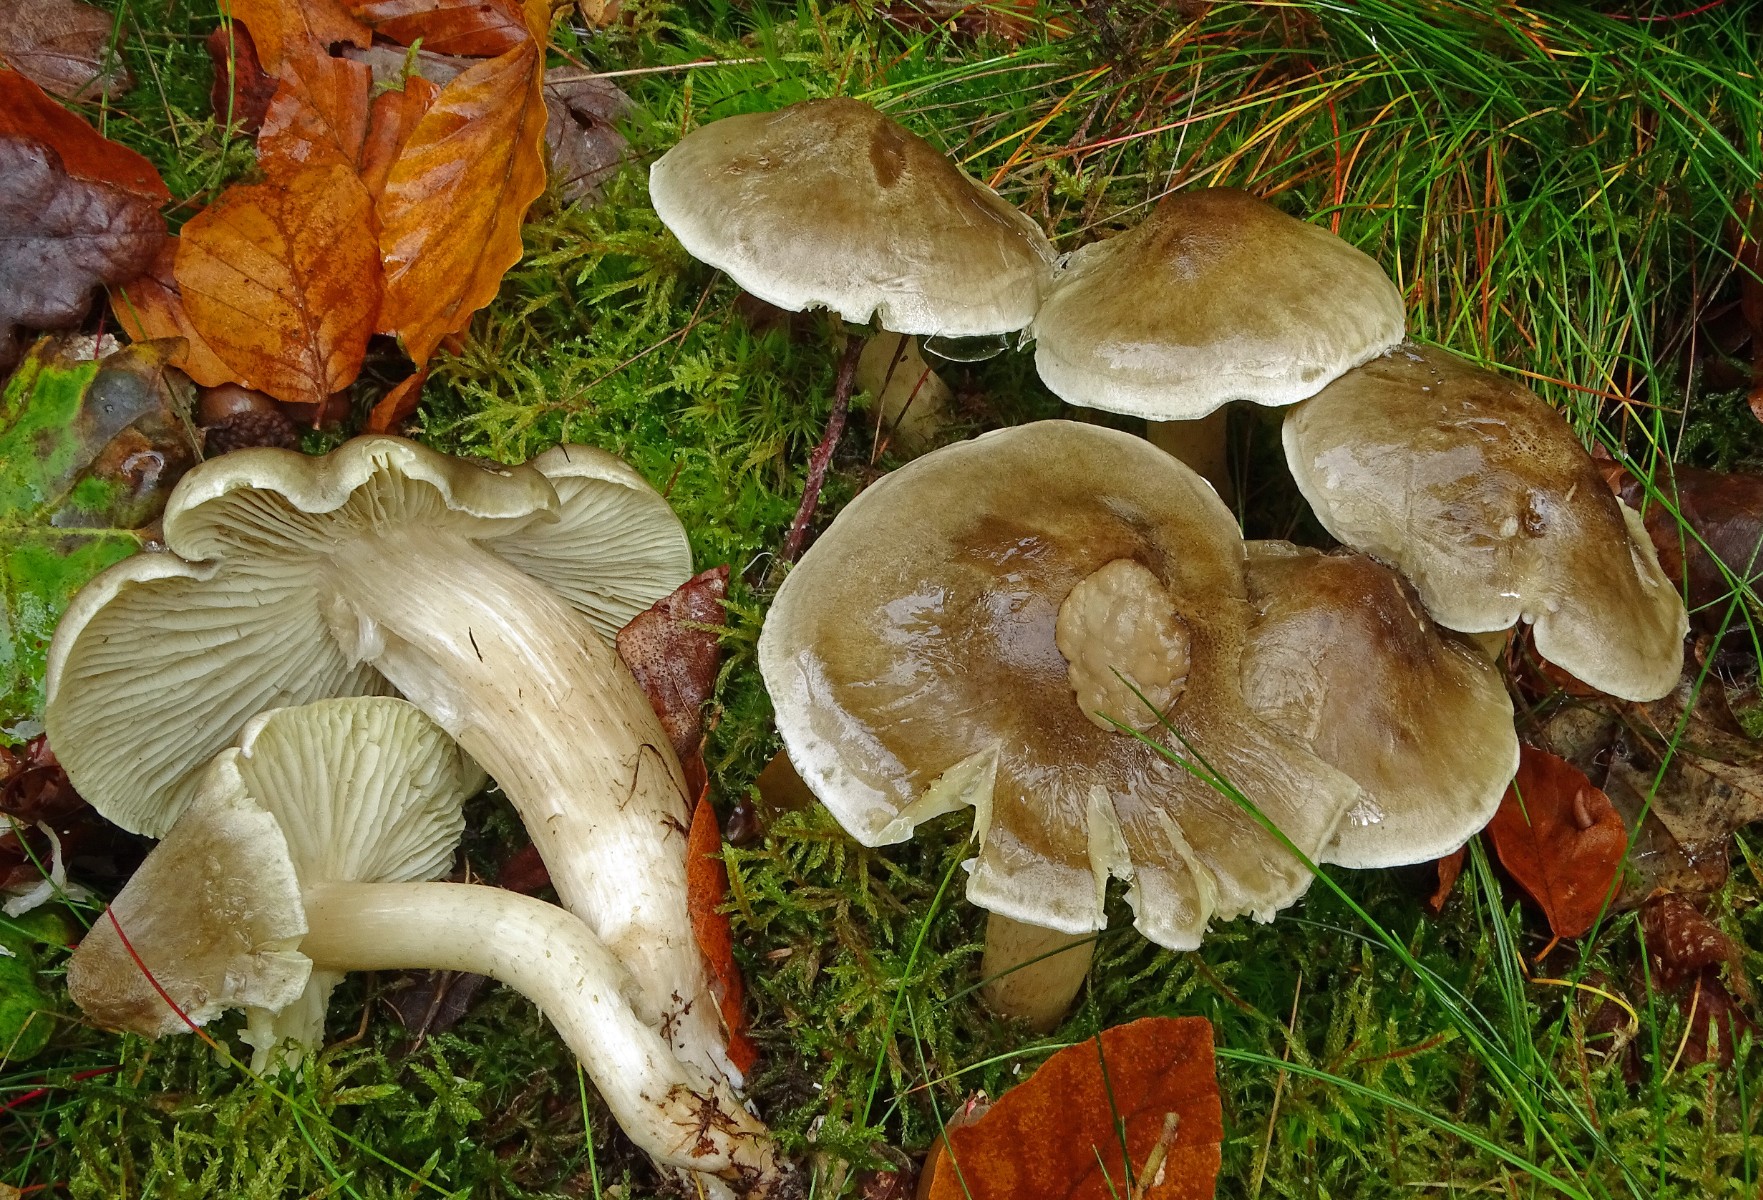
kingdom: Fungi
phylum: Basidiomycota
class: Agaricomycetes
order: Agaricales
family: Tricholomataceae
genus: Tricholoma
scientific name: Tricholoma portentosum
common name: grå ridderhat
